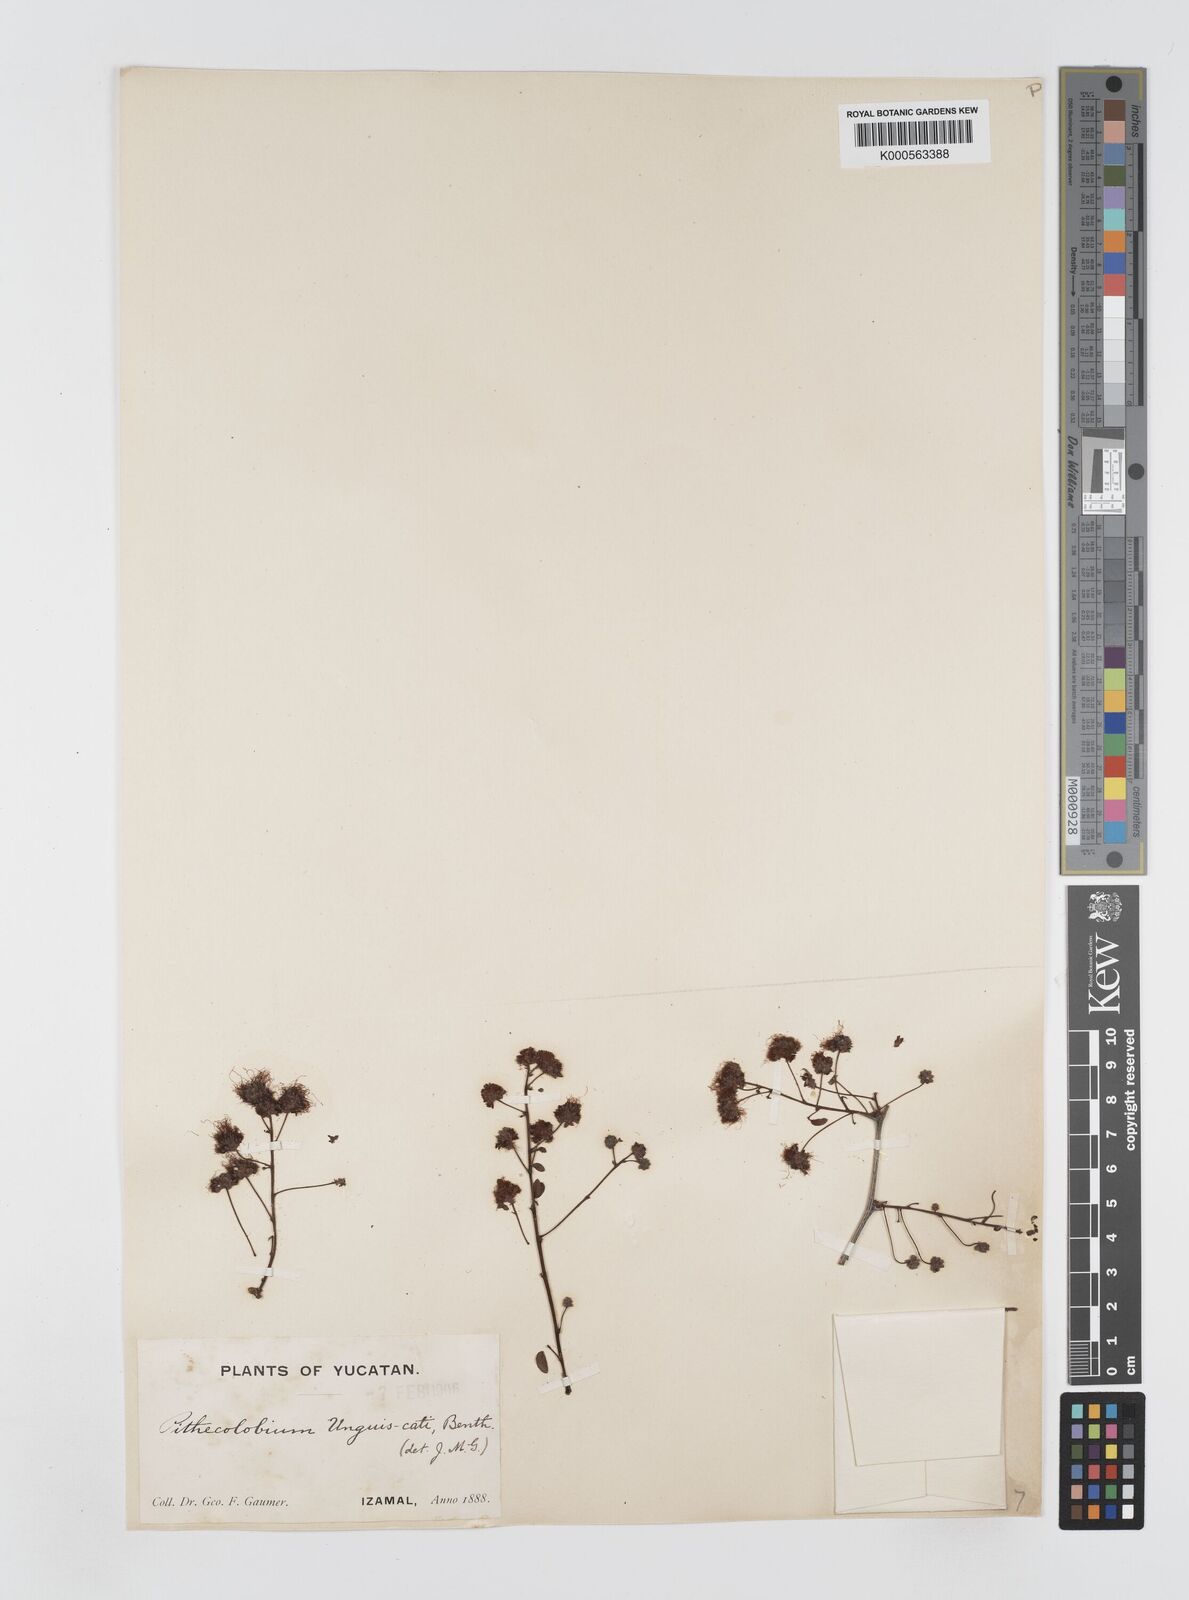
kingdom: Plantae
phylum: Tracheophyta
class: Magnoliopsida
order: Fabales
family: Fabaceae
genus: Pithecellobium
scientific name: Pithecellobium unguis-cati
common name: Cat's-claw
